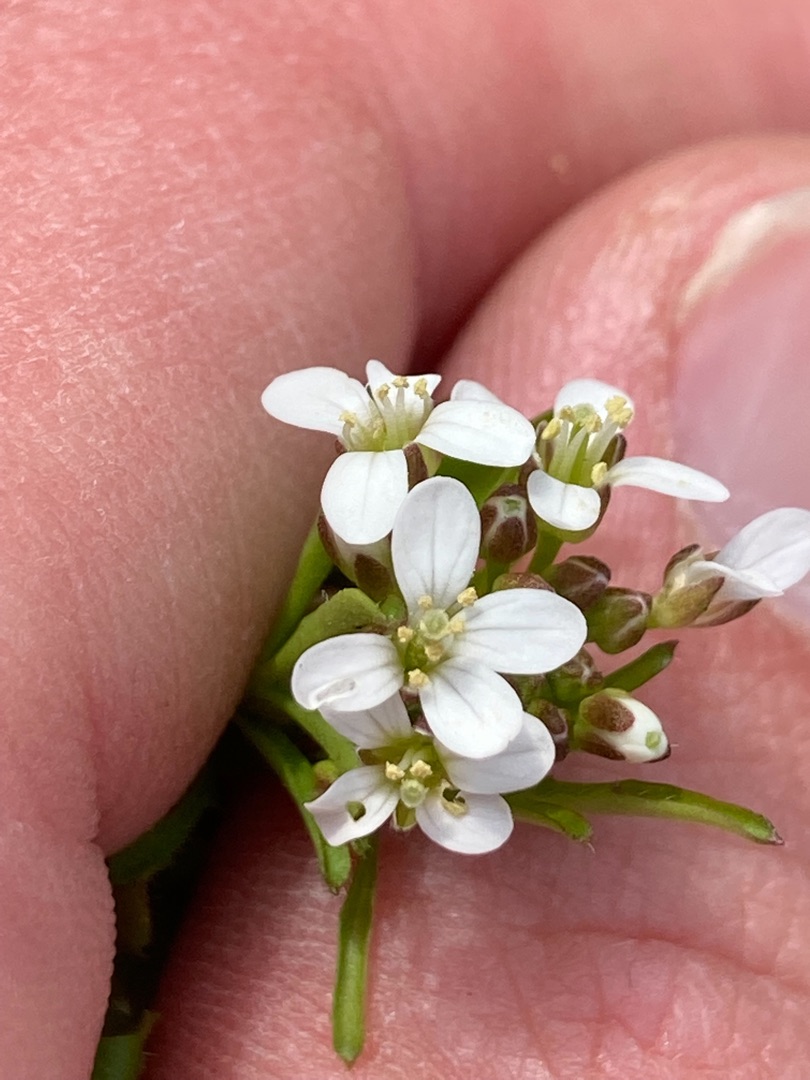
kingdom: Plantae
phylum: Tracheophyta
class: Magnoliopsida
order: Brassicales
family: Brassicaceae
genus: Cardamine
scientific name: Cardamine flexuosa
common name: Skov-springklap
